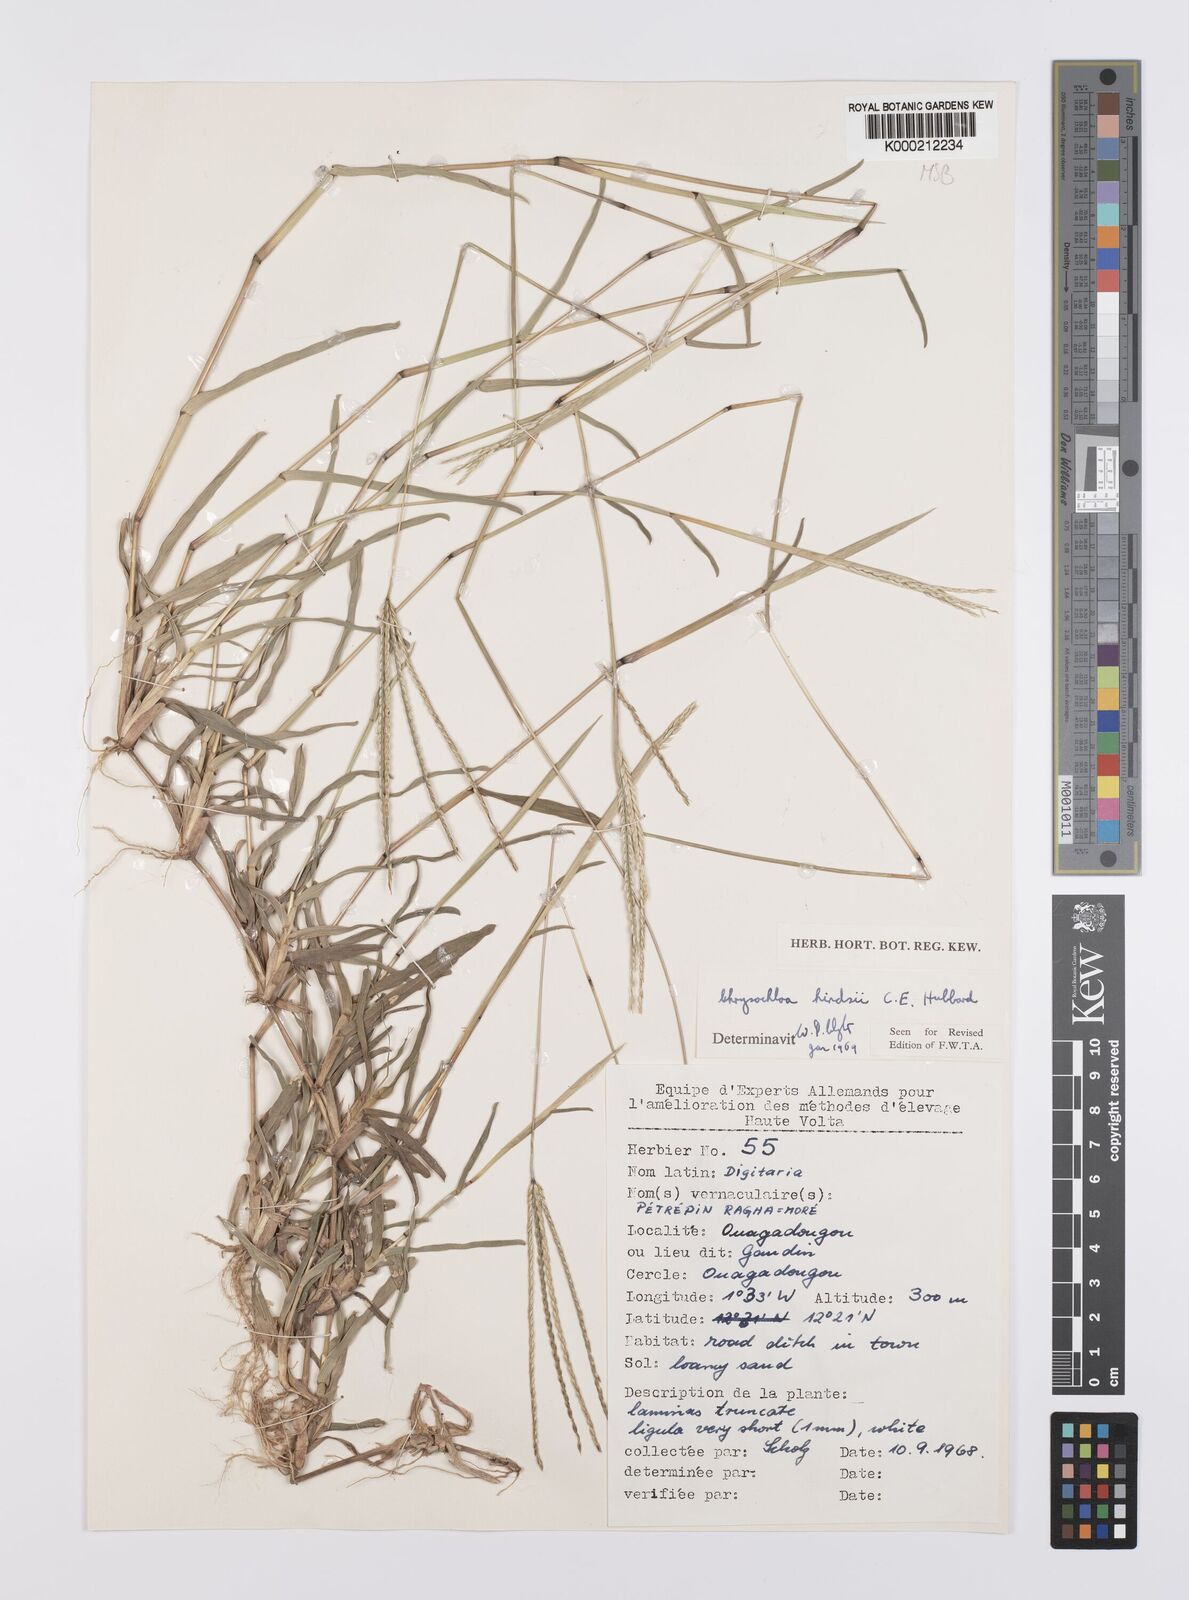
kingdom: Plantae
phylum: Tracheophyta
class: Liliopsida
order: Poales
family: Poaceae
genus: Chrysochloa
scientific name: Chrysochloa hindsii
